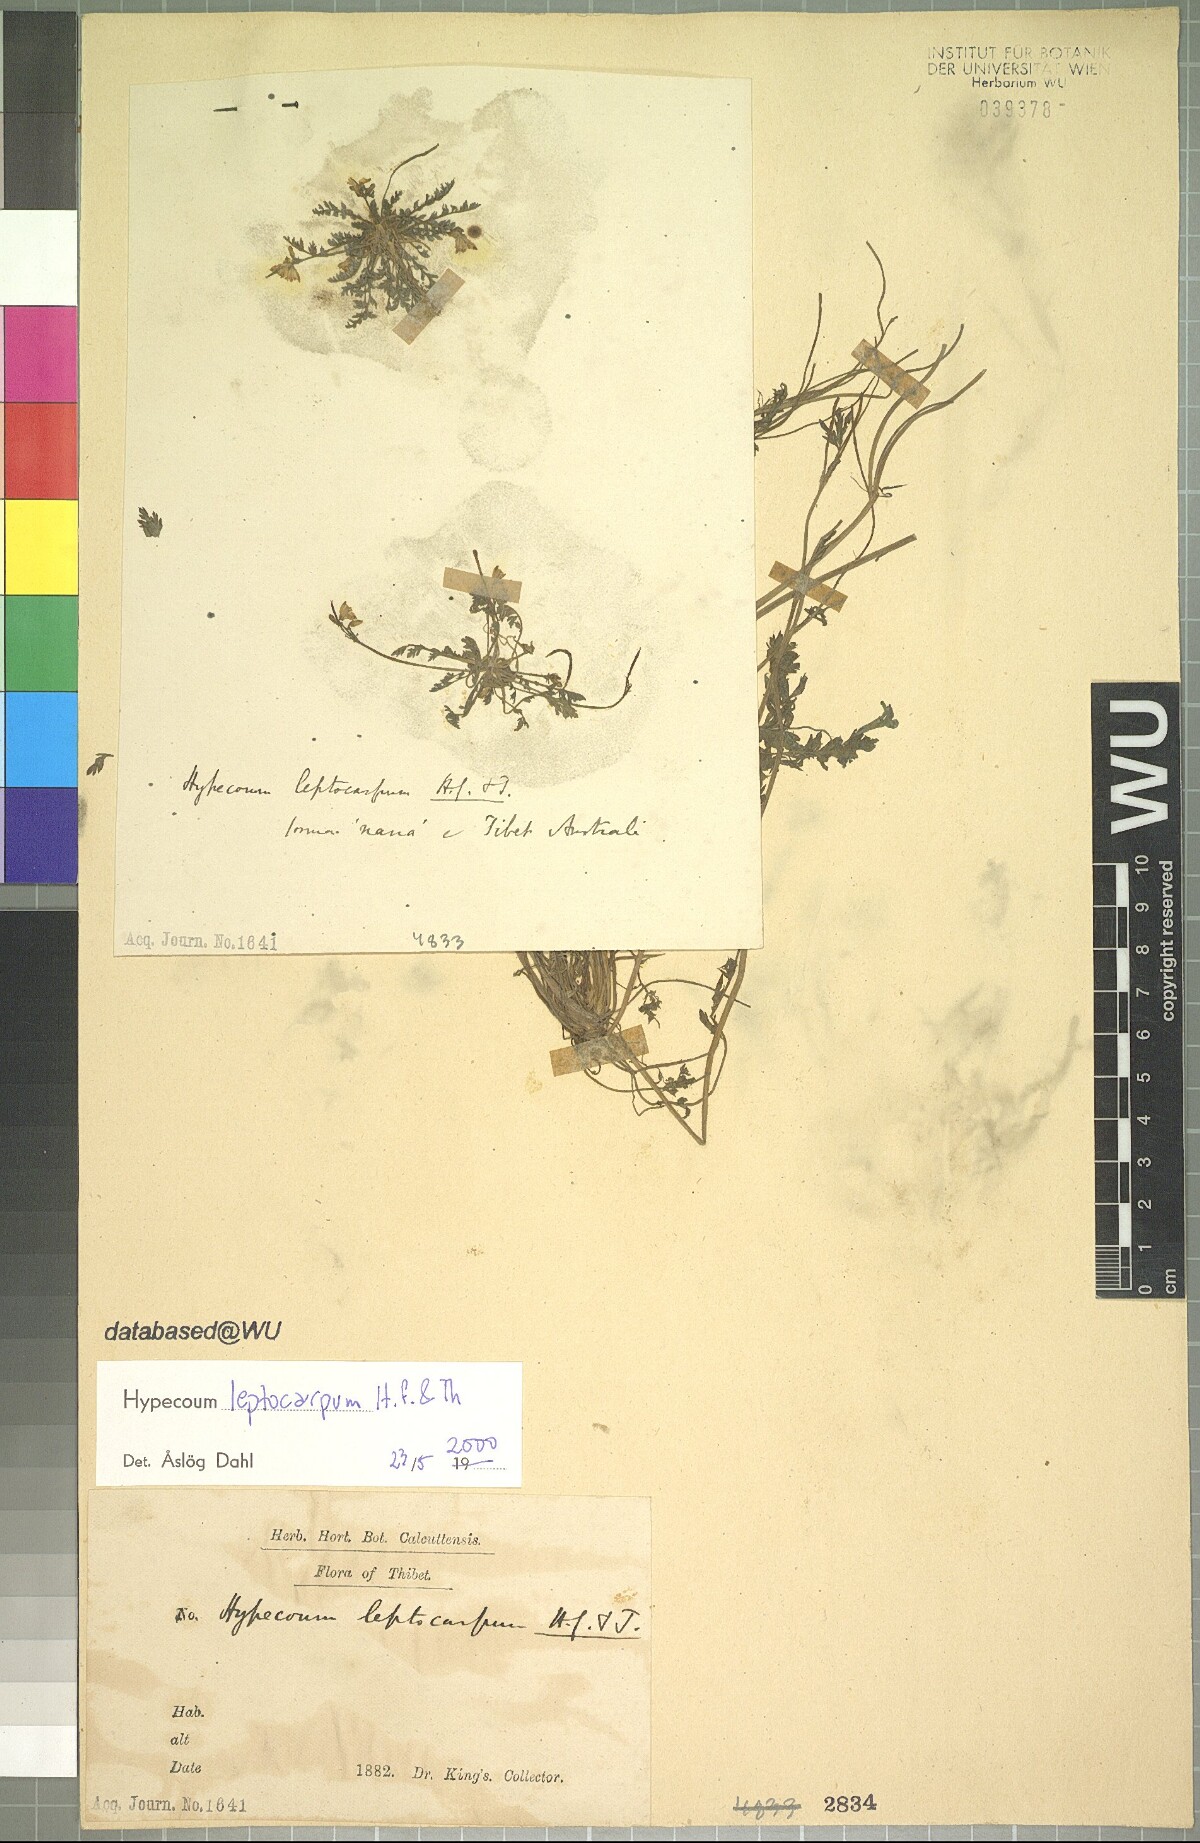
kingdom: Plantae
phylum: Tracheophyta
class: Magnoliopsida
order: Ranunculales
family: Papaveraceae
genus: Hypecoum
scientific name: Hypecoum leptocarpum
